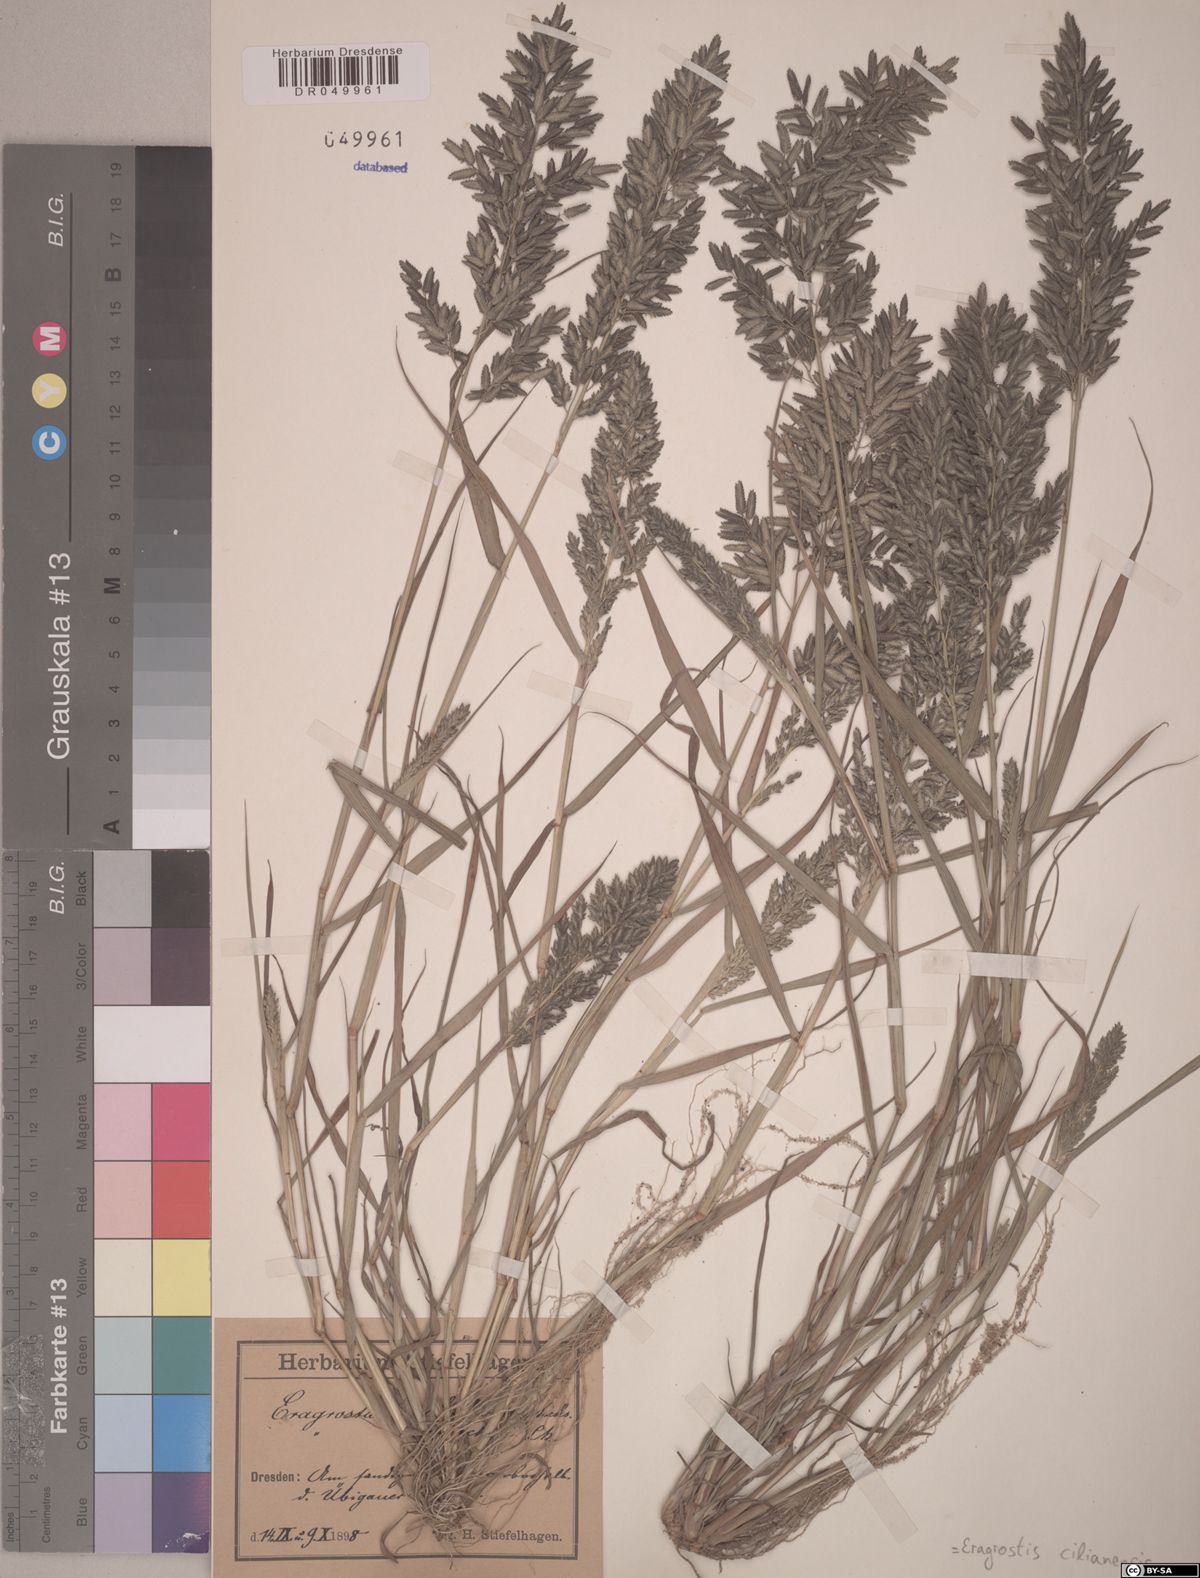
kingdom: Plantae
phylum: Tracheophyta
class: Liliopsida
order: Poales
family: Poaceae
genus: Eragrostis
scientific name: Eragrostis cilianensis
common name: Stinkgrass
